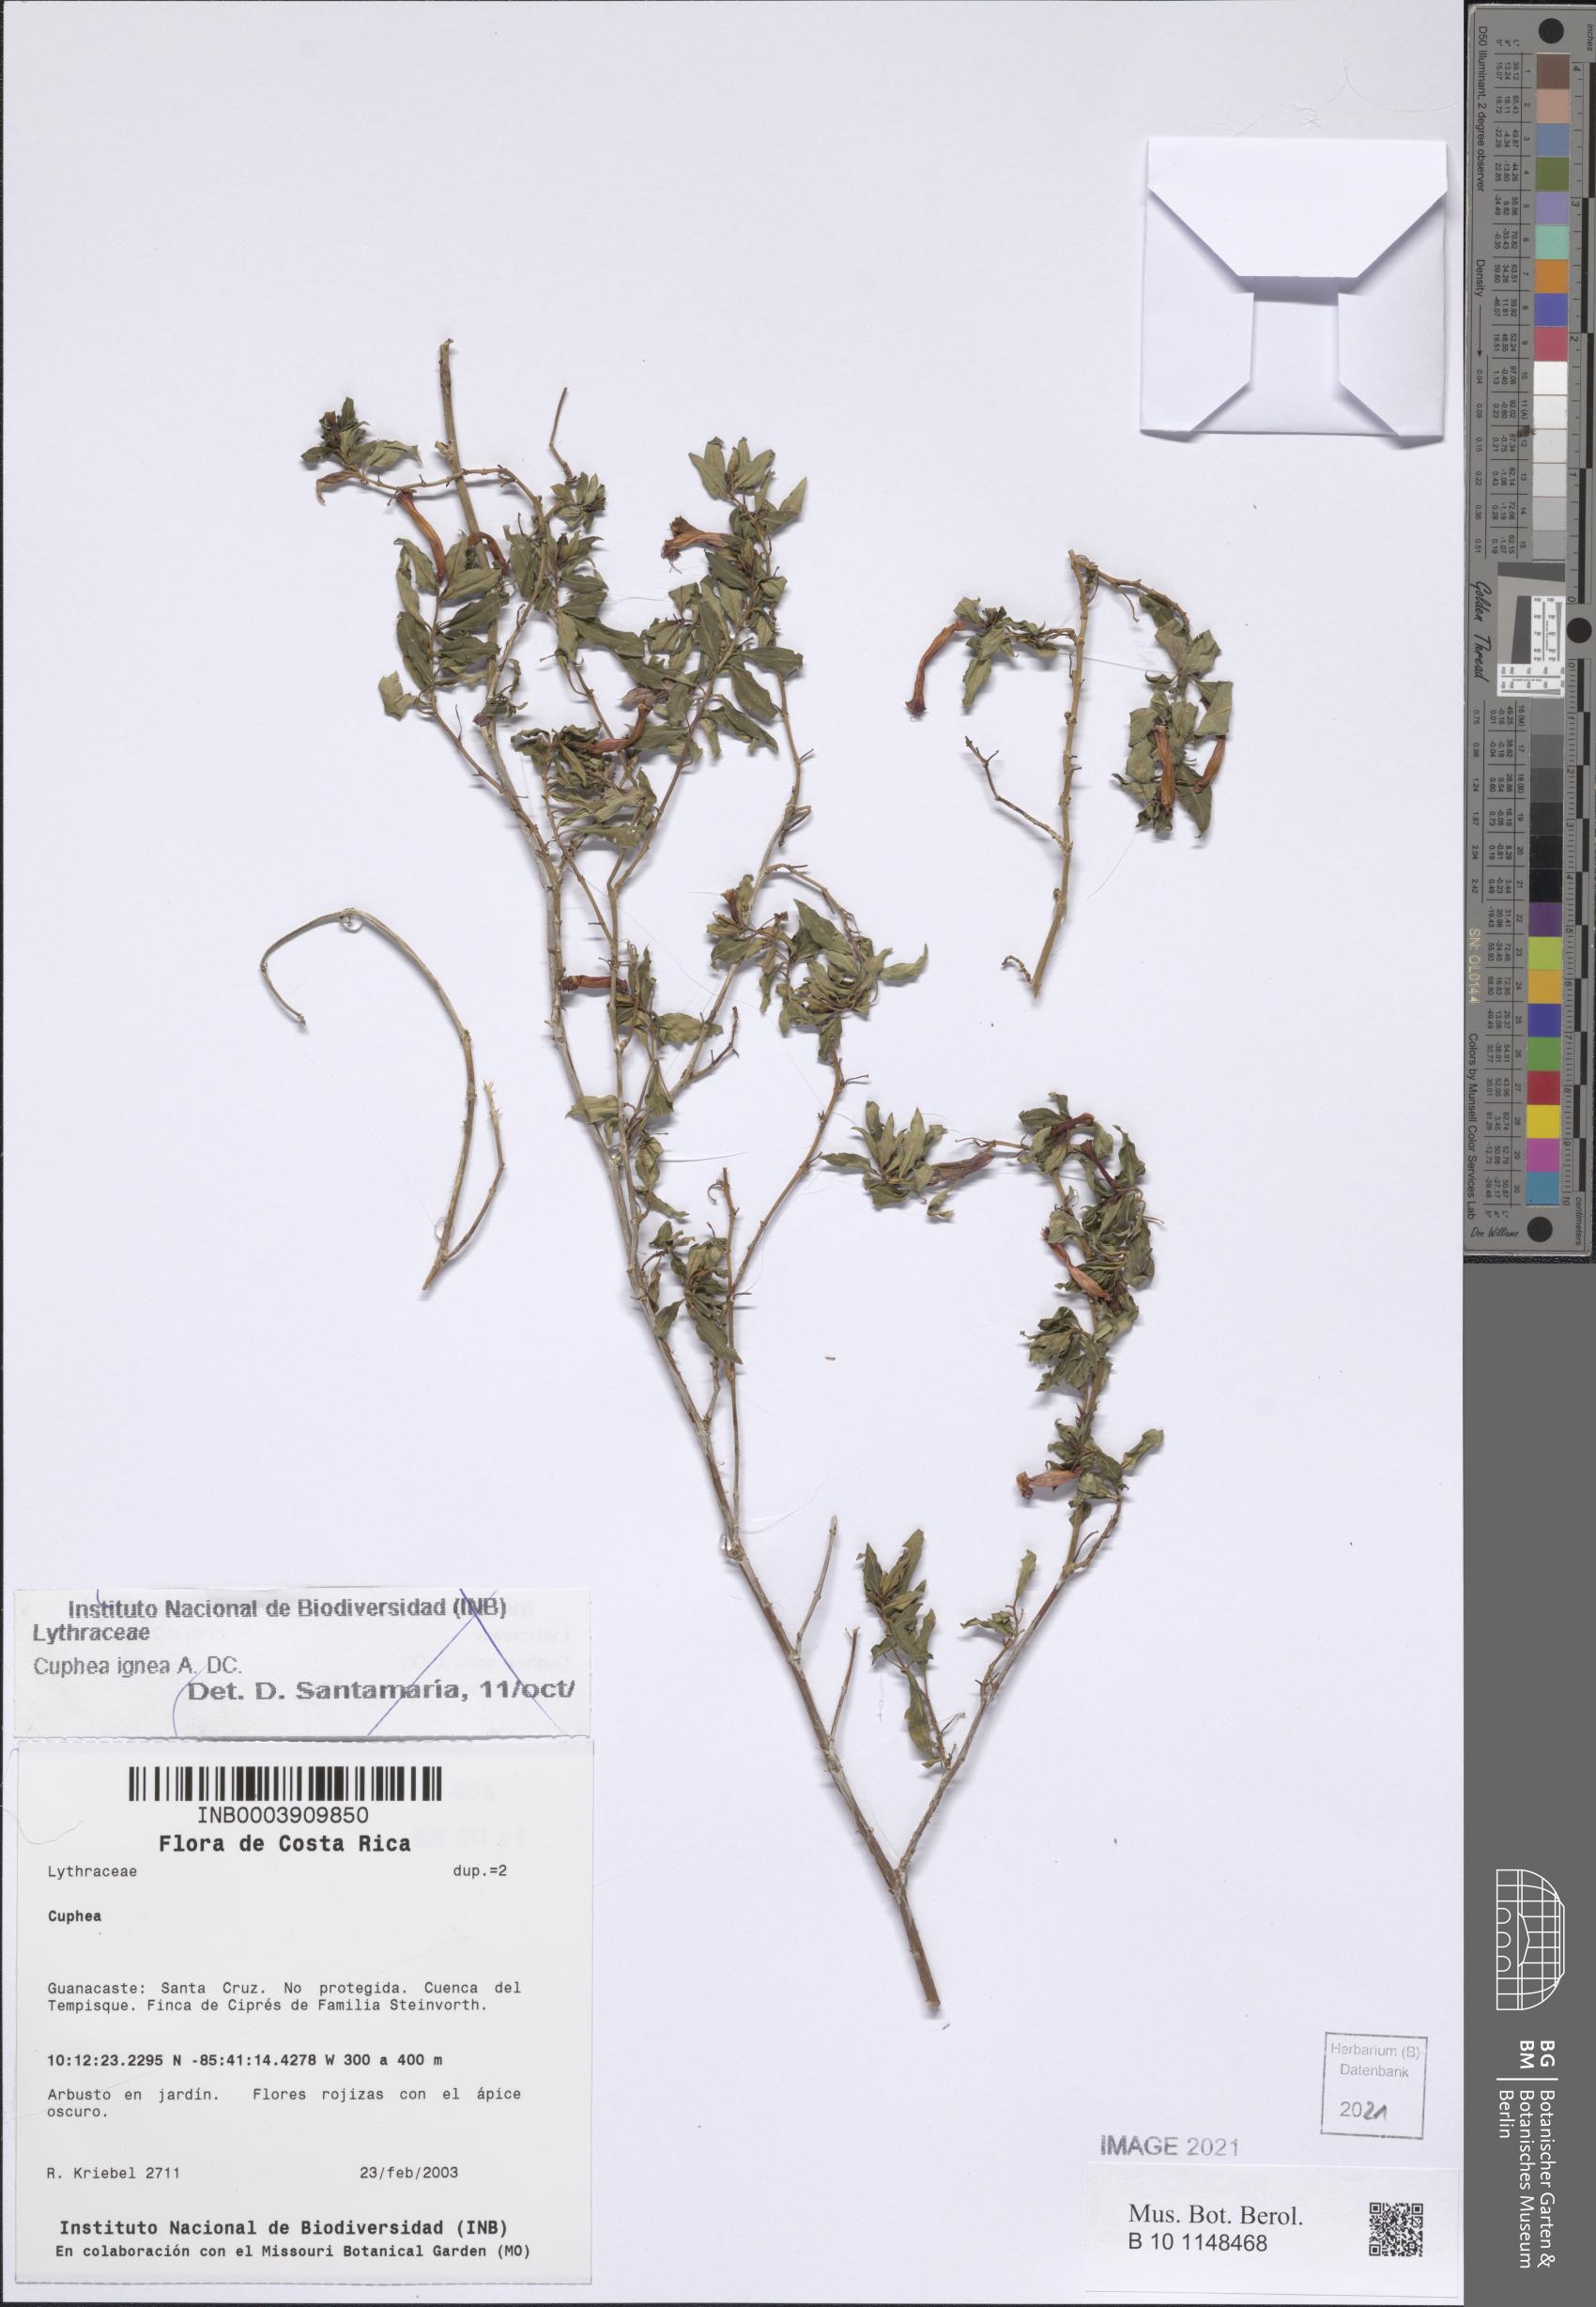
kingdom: Plantae
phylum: Tracheophyta
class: Magnoliopsida
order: Myrtales
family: Lythraceae
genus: Cuphea
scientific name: Cuphea ignea
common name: Cigar flower
